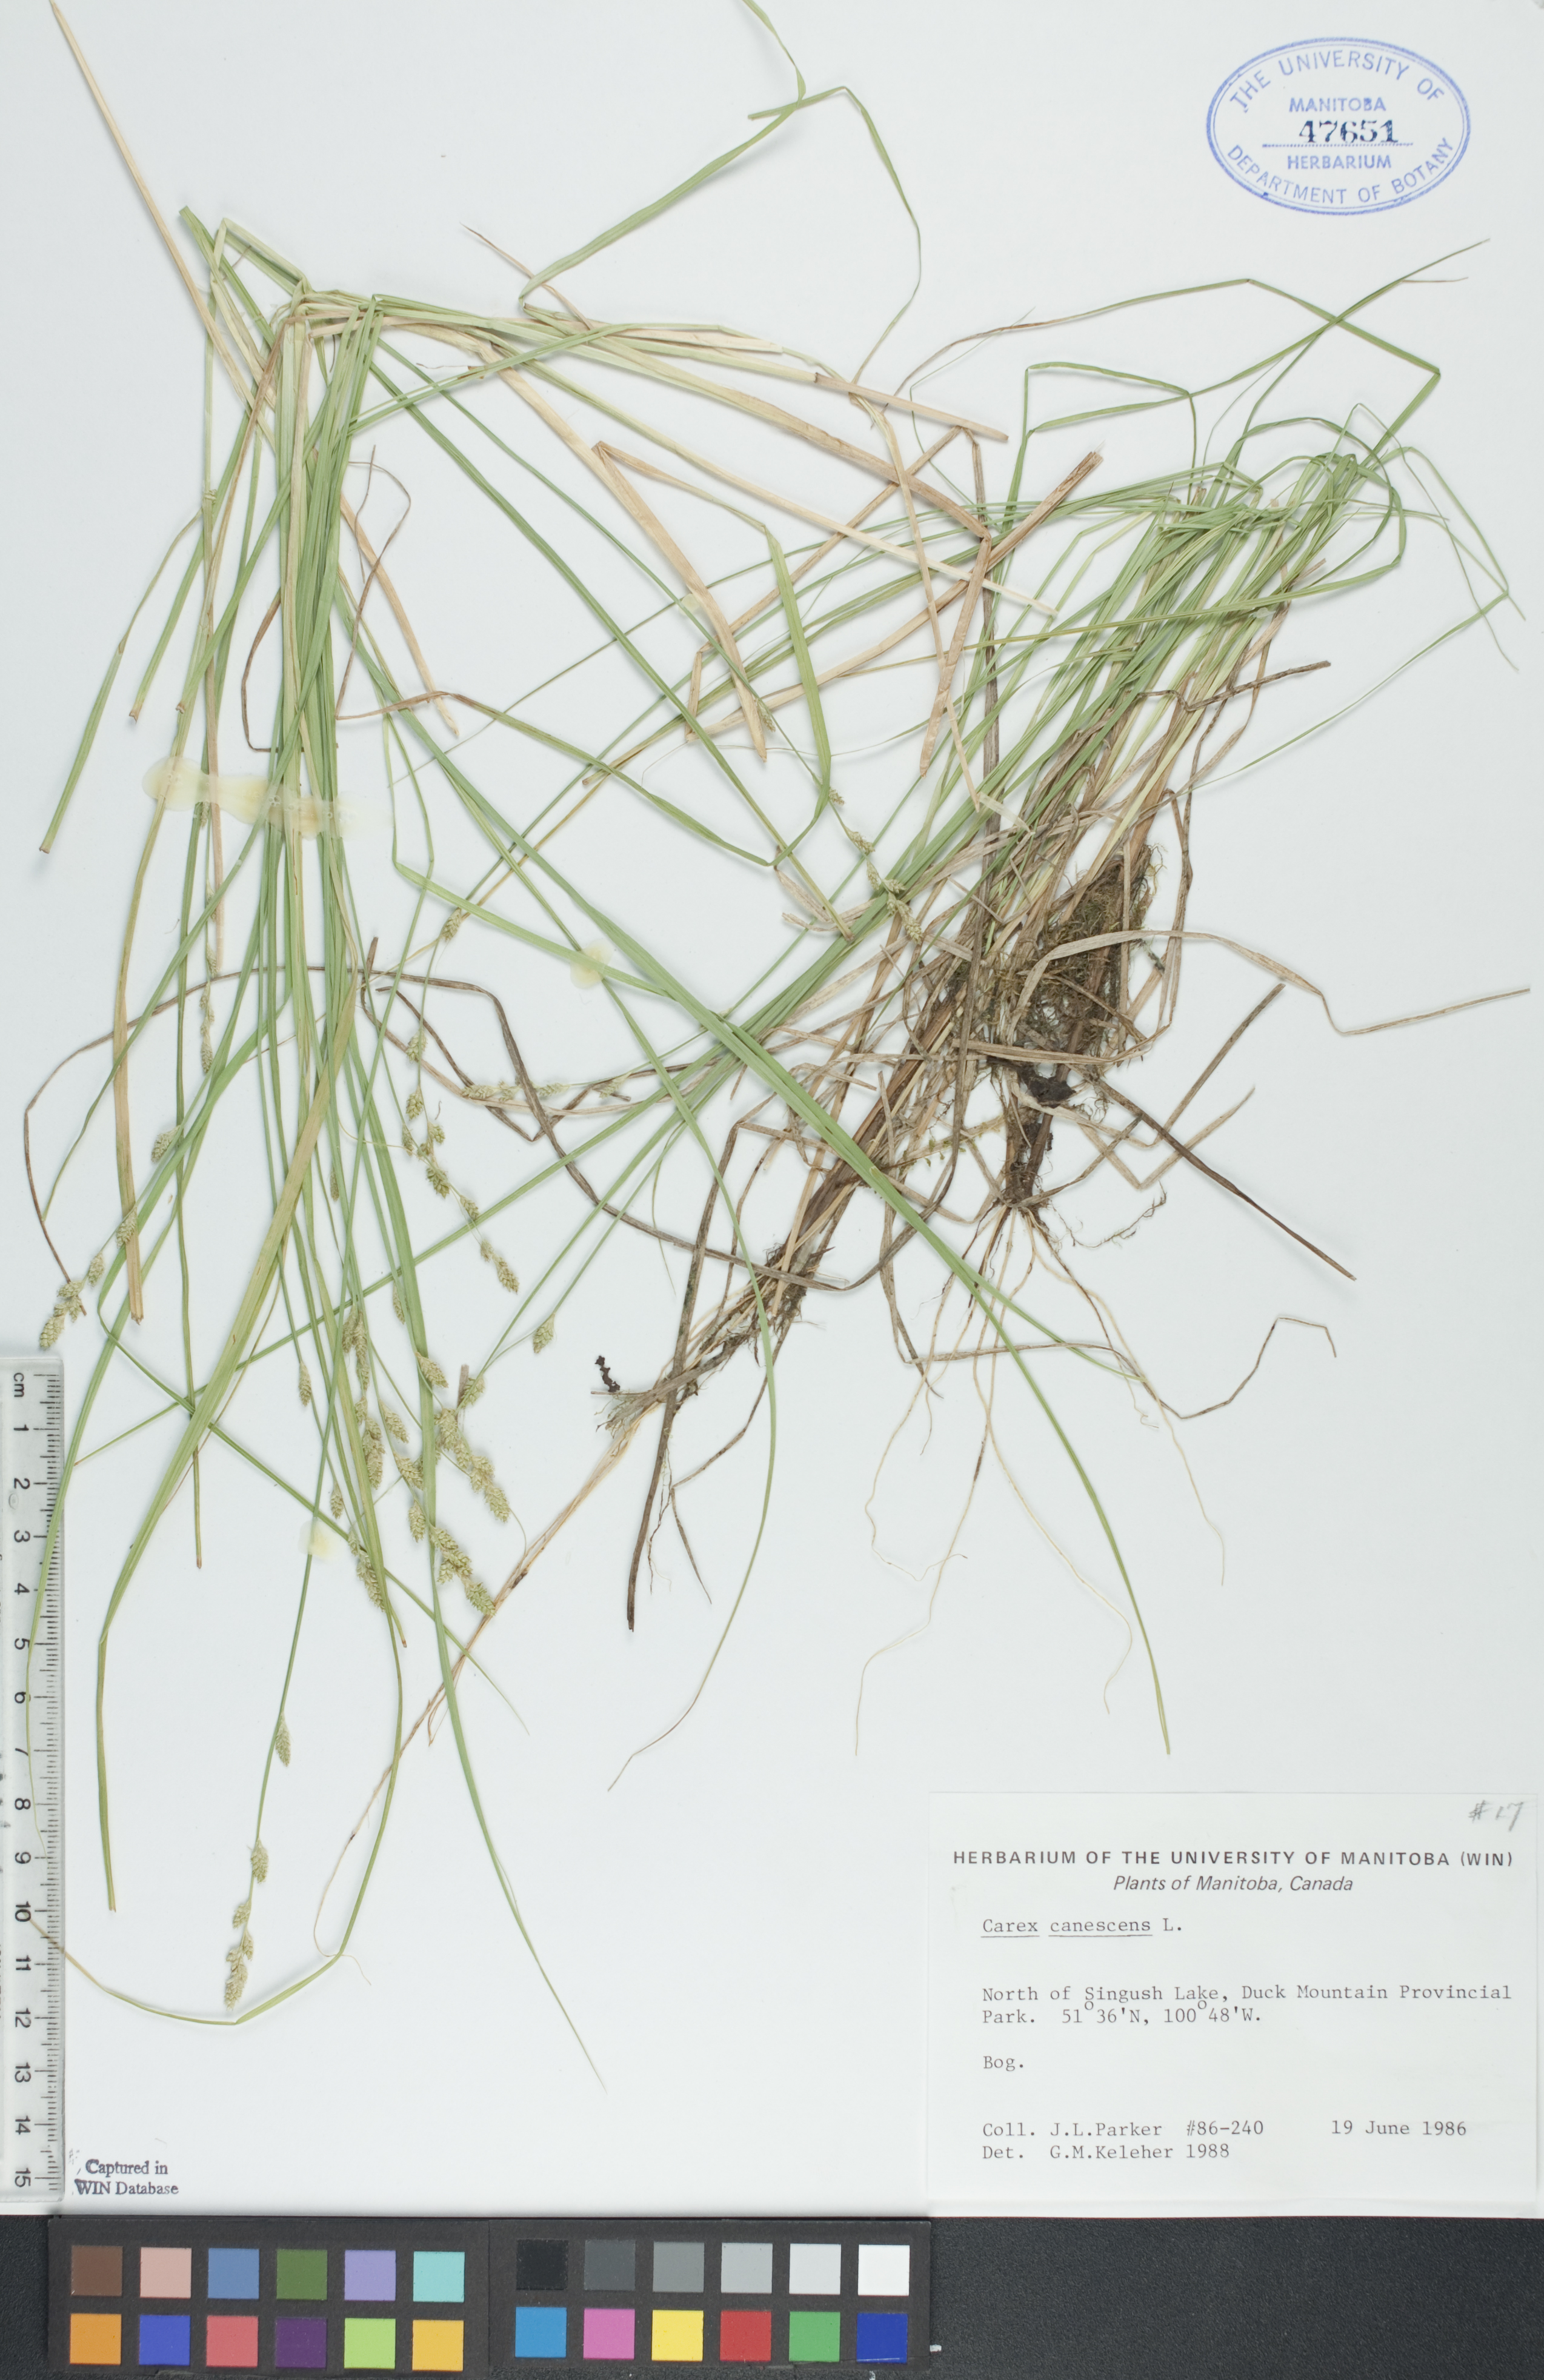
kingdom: Plantae
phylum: Tracheophyta
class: Liliopsida
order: Poales
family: Cyperaceae
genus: Carex
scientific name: Carex canescens
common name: White sedge
